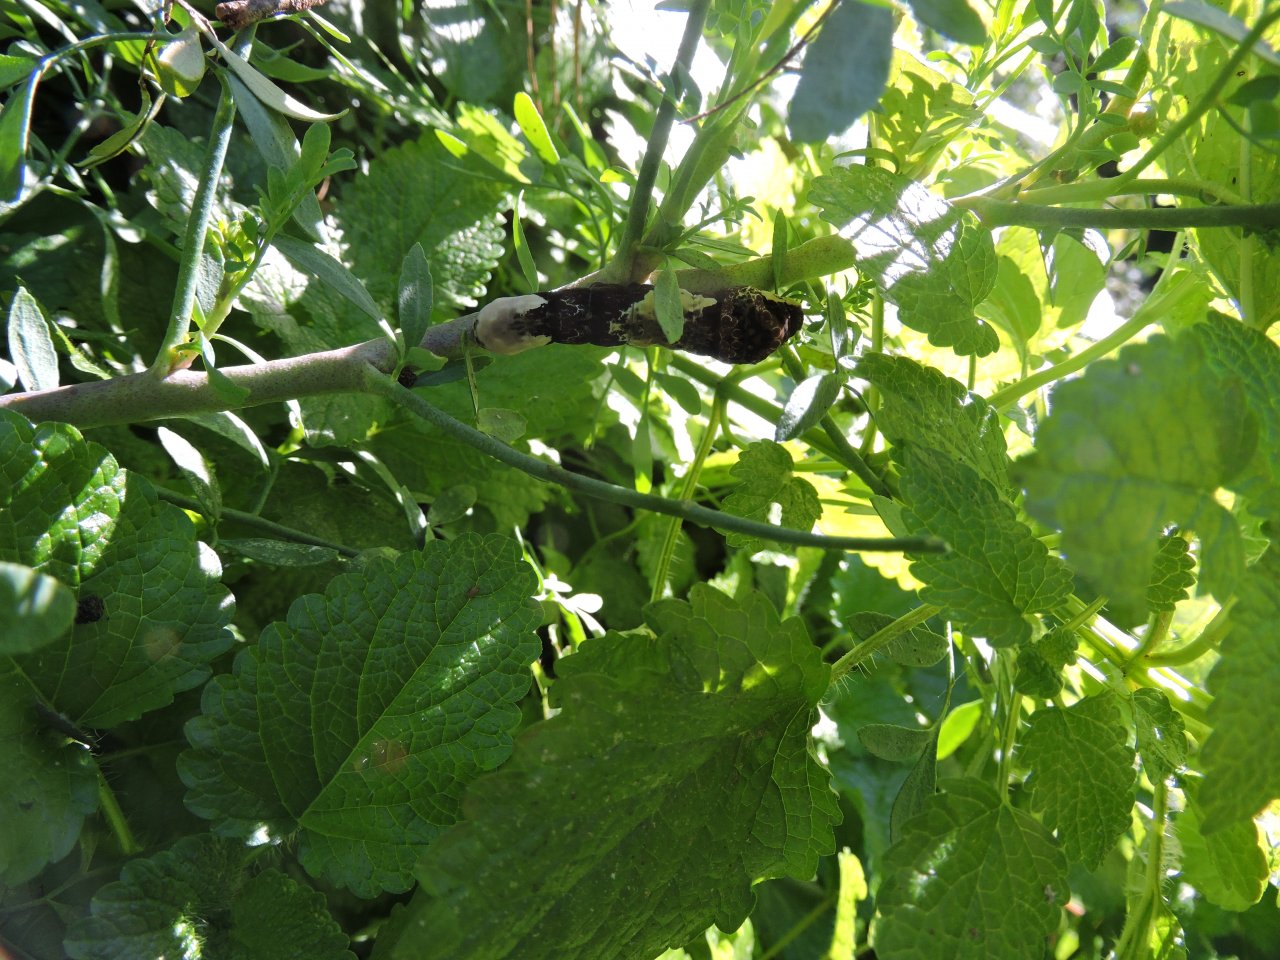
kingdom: Animalia
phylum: Arthropoda
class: Insecta
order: Lepidoptera
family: Papilionidae
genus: Papilio
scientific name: Papilio cresphontes
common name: Eastern Giant Swallowtail
